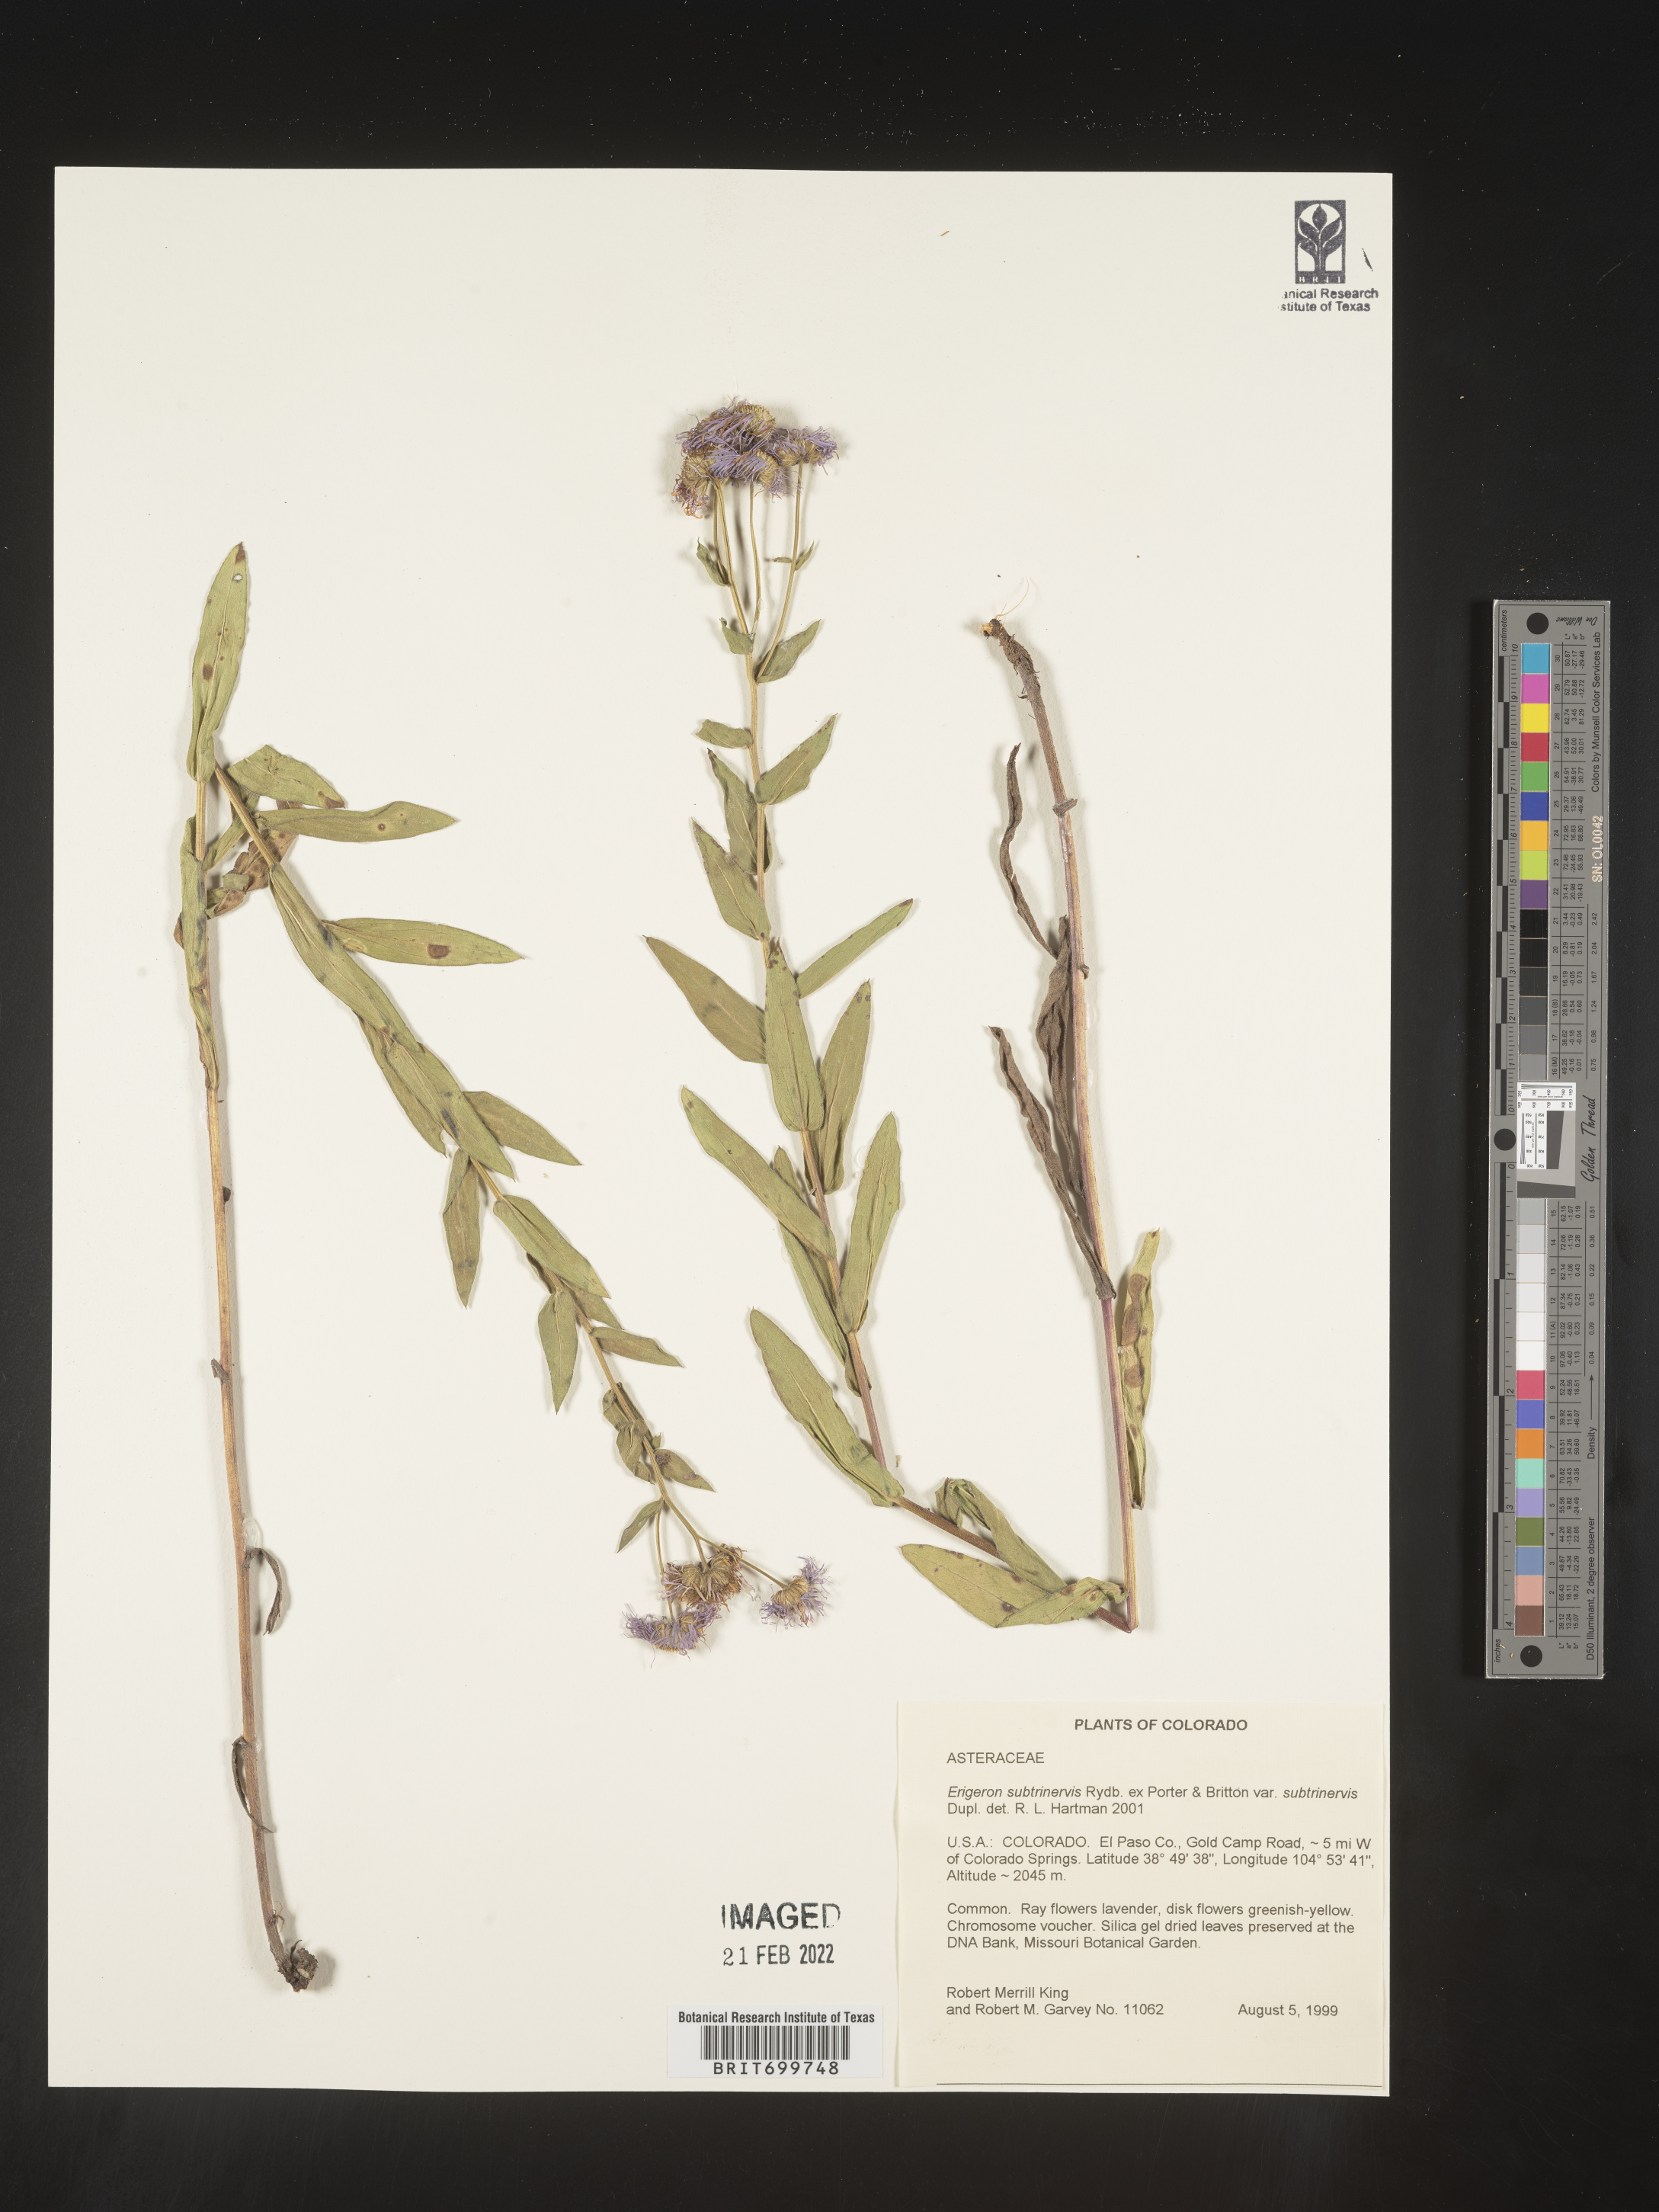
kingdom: Plantae
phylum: Tracheophyta
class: Magnoliopsida
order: Asterales
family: Asteraceae
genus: Erigeron
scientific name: Erigeron subtrinervis
